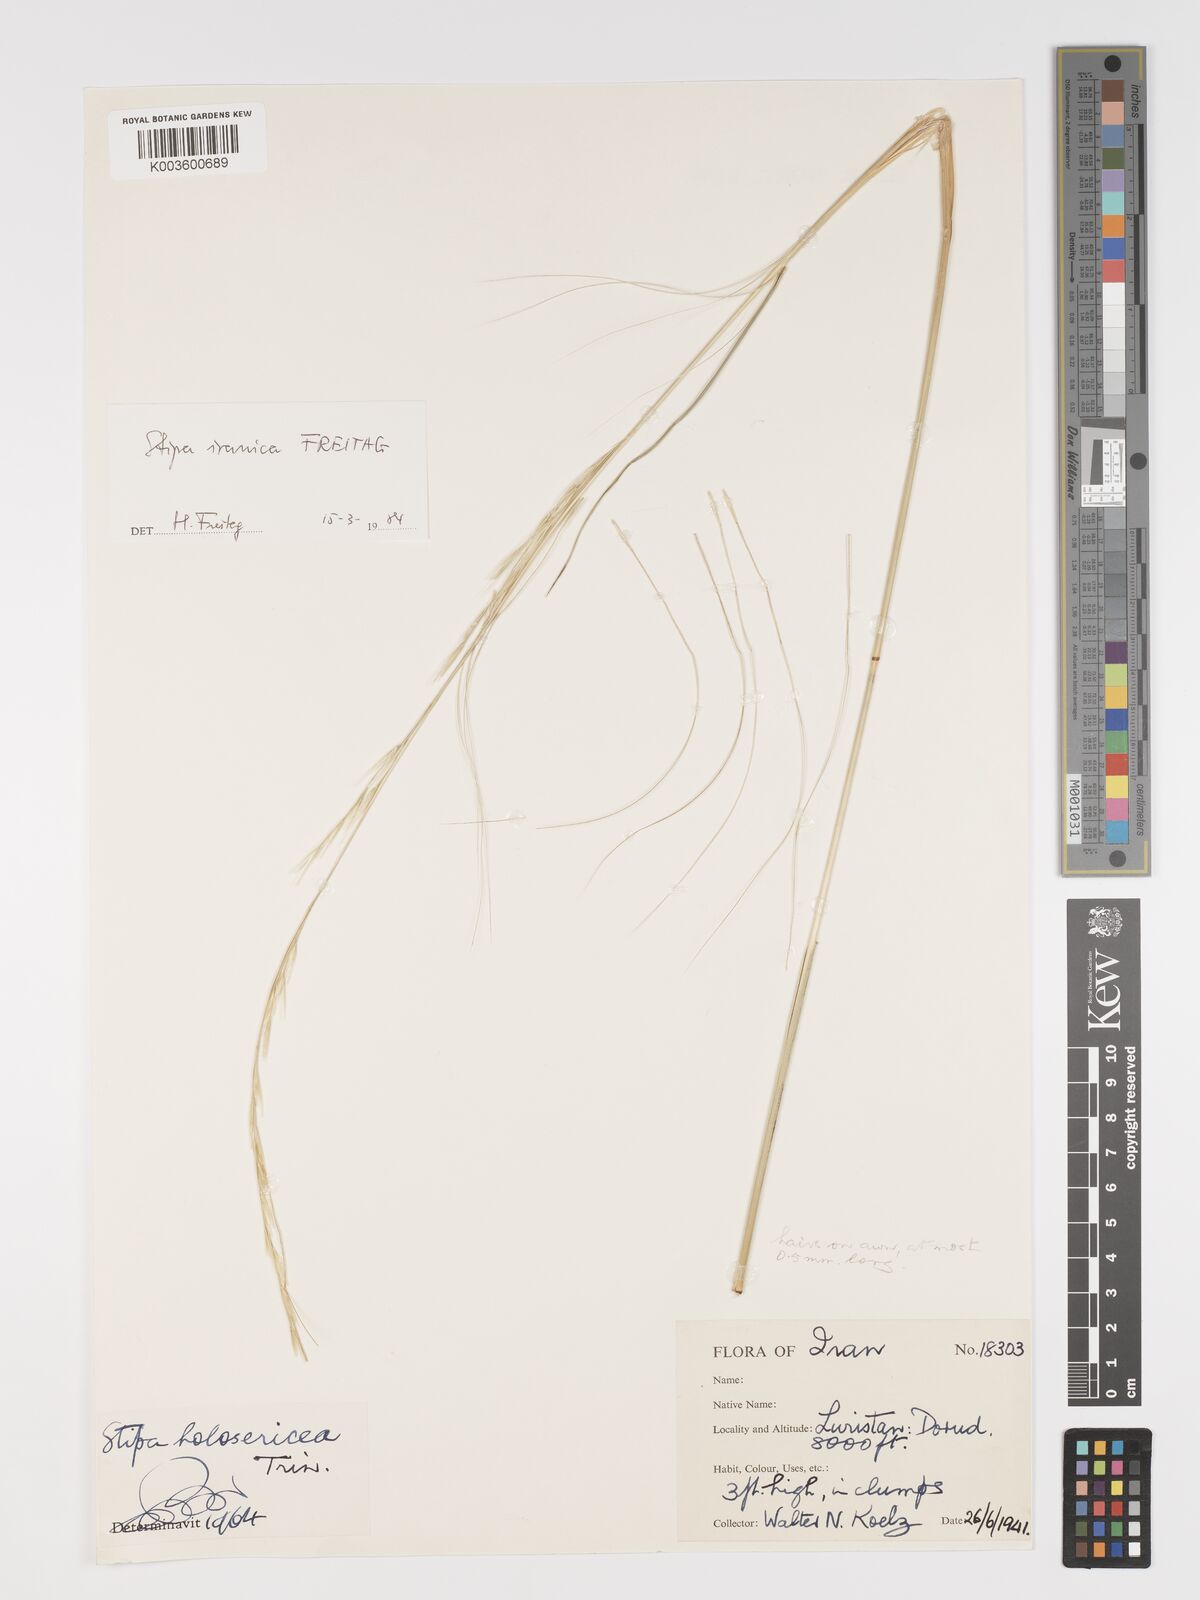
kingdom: Plantae
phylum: Tracheophyta
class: Liliopsida
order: Poales
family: Poaceae
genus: Stipa
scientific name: Stipa iranica
